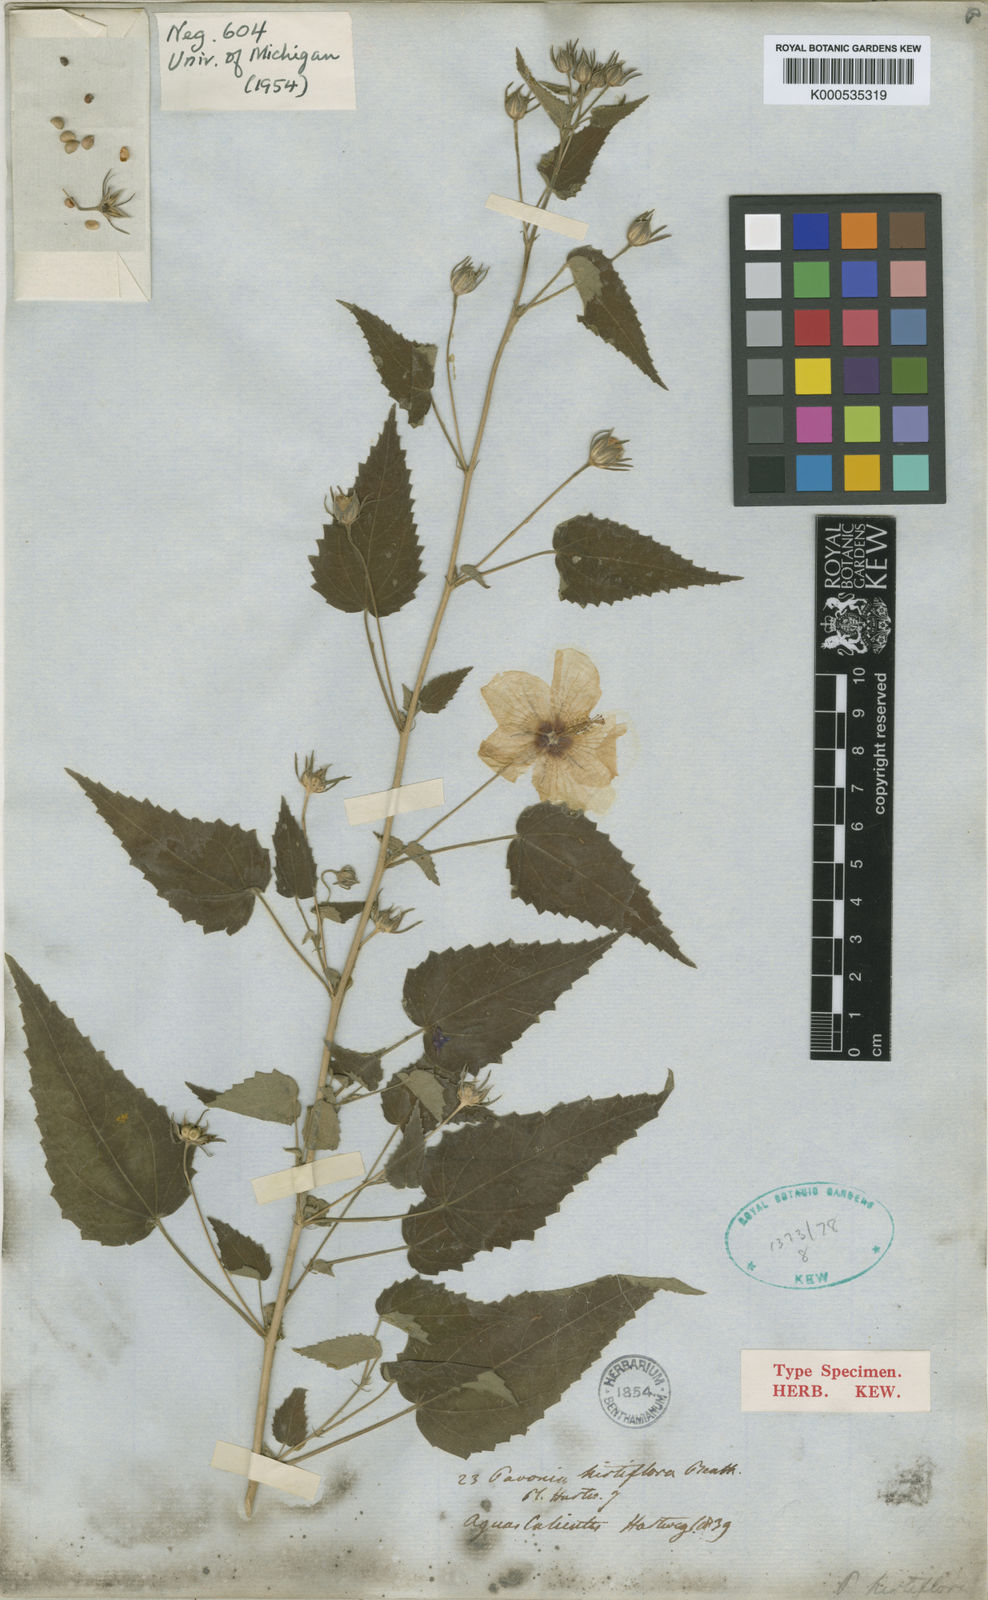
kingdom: Plantae
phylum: Tracheophyta
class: Magnoliopsida
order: Malvales
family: Malvaceae
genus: Pavonia
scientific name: Pavonia hirtiflora
